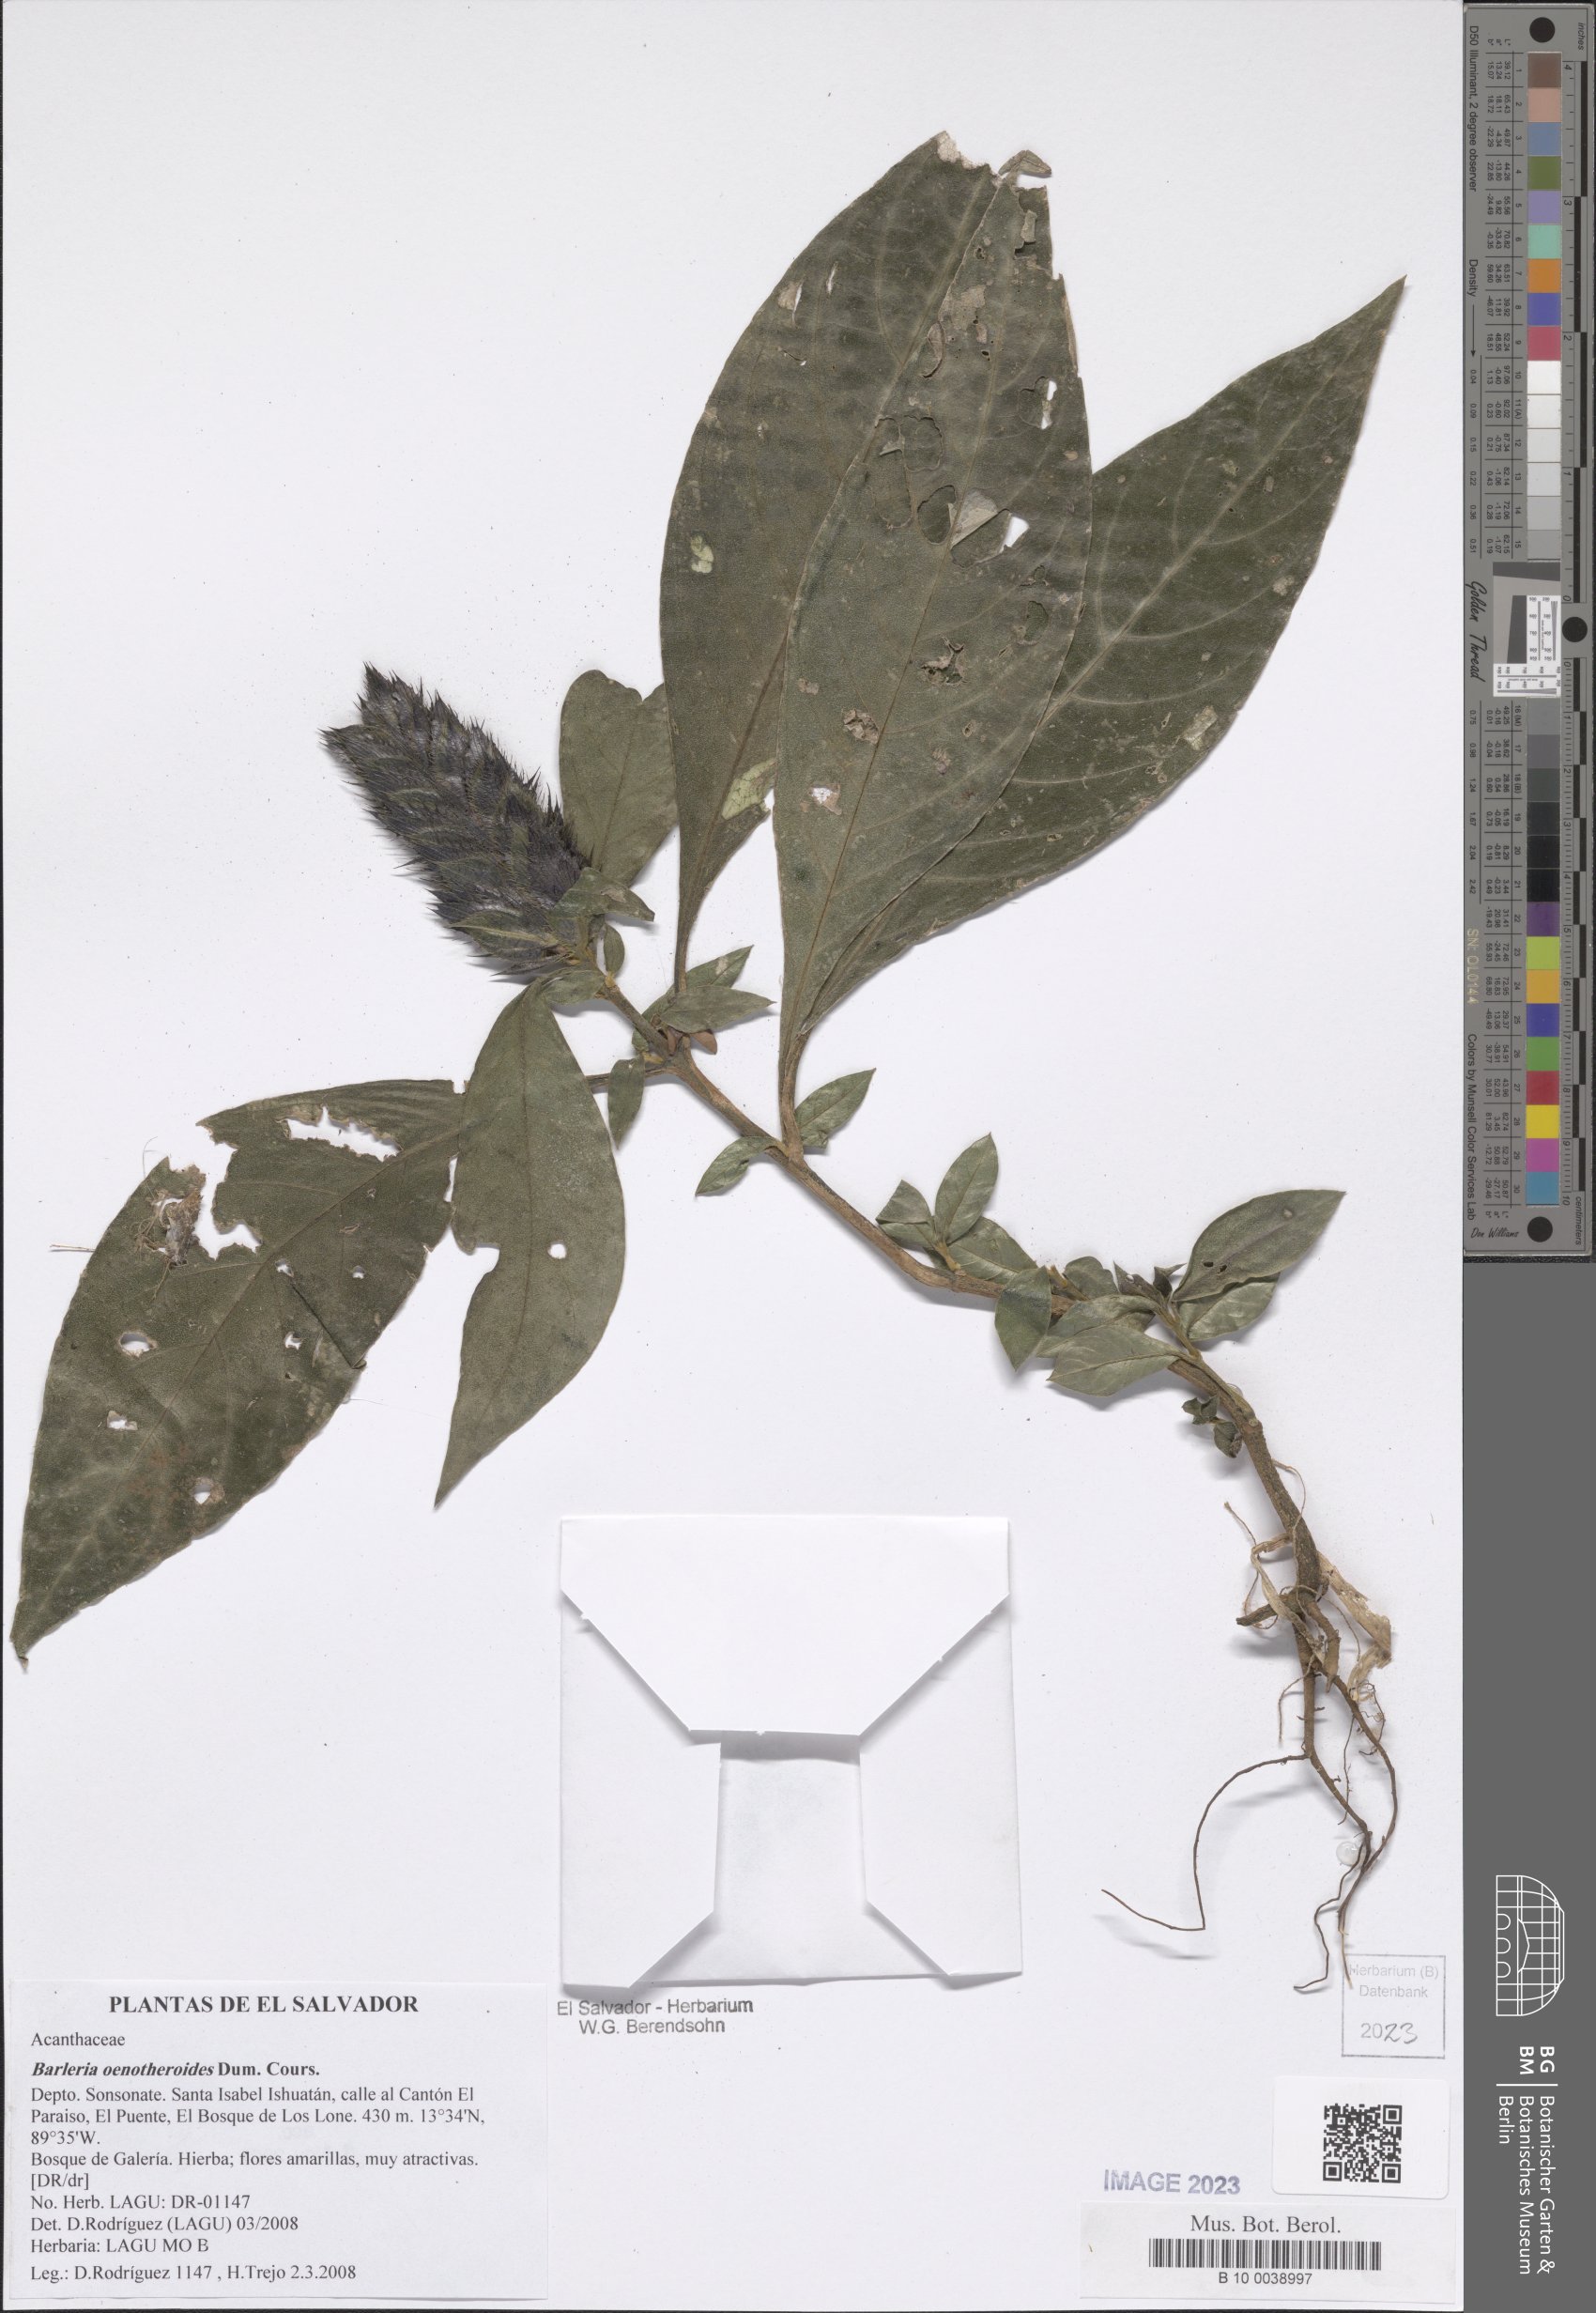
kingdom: Plantae
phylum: Tracheophyta
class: Magnoliopsida
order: Lamiales
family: Acanthaceae
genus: Barleria
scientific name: Barleria oenotheroides
